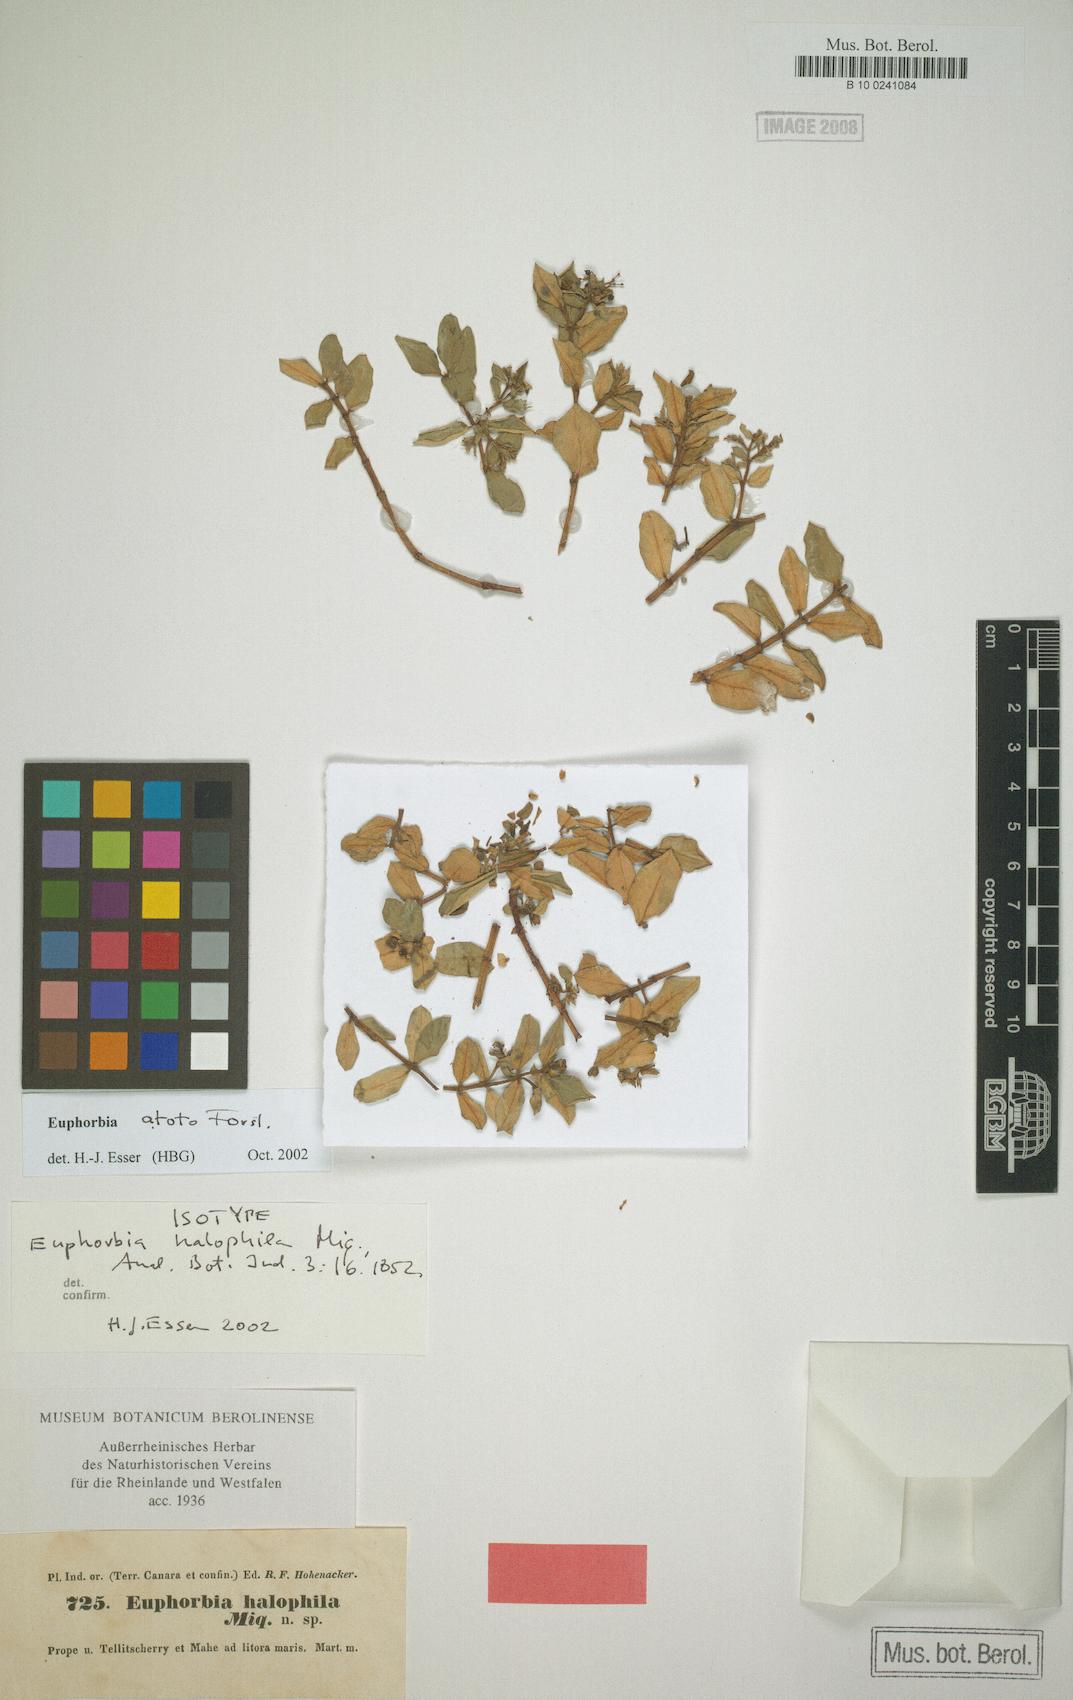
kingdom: Plantae
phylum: Tracheophyta
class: Magnoliopsida
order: Malpighiales
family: Euphorbiaceae
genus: Euphorbia
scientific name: Euphorbia atoto
